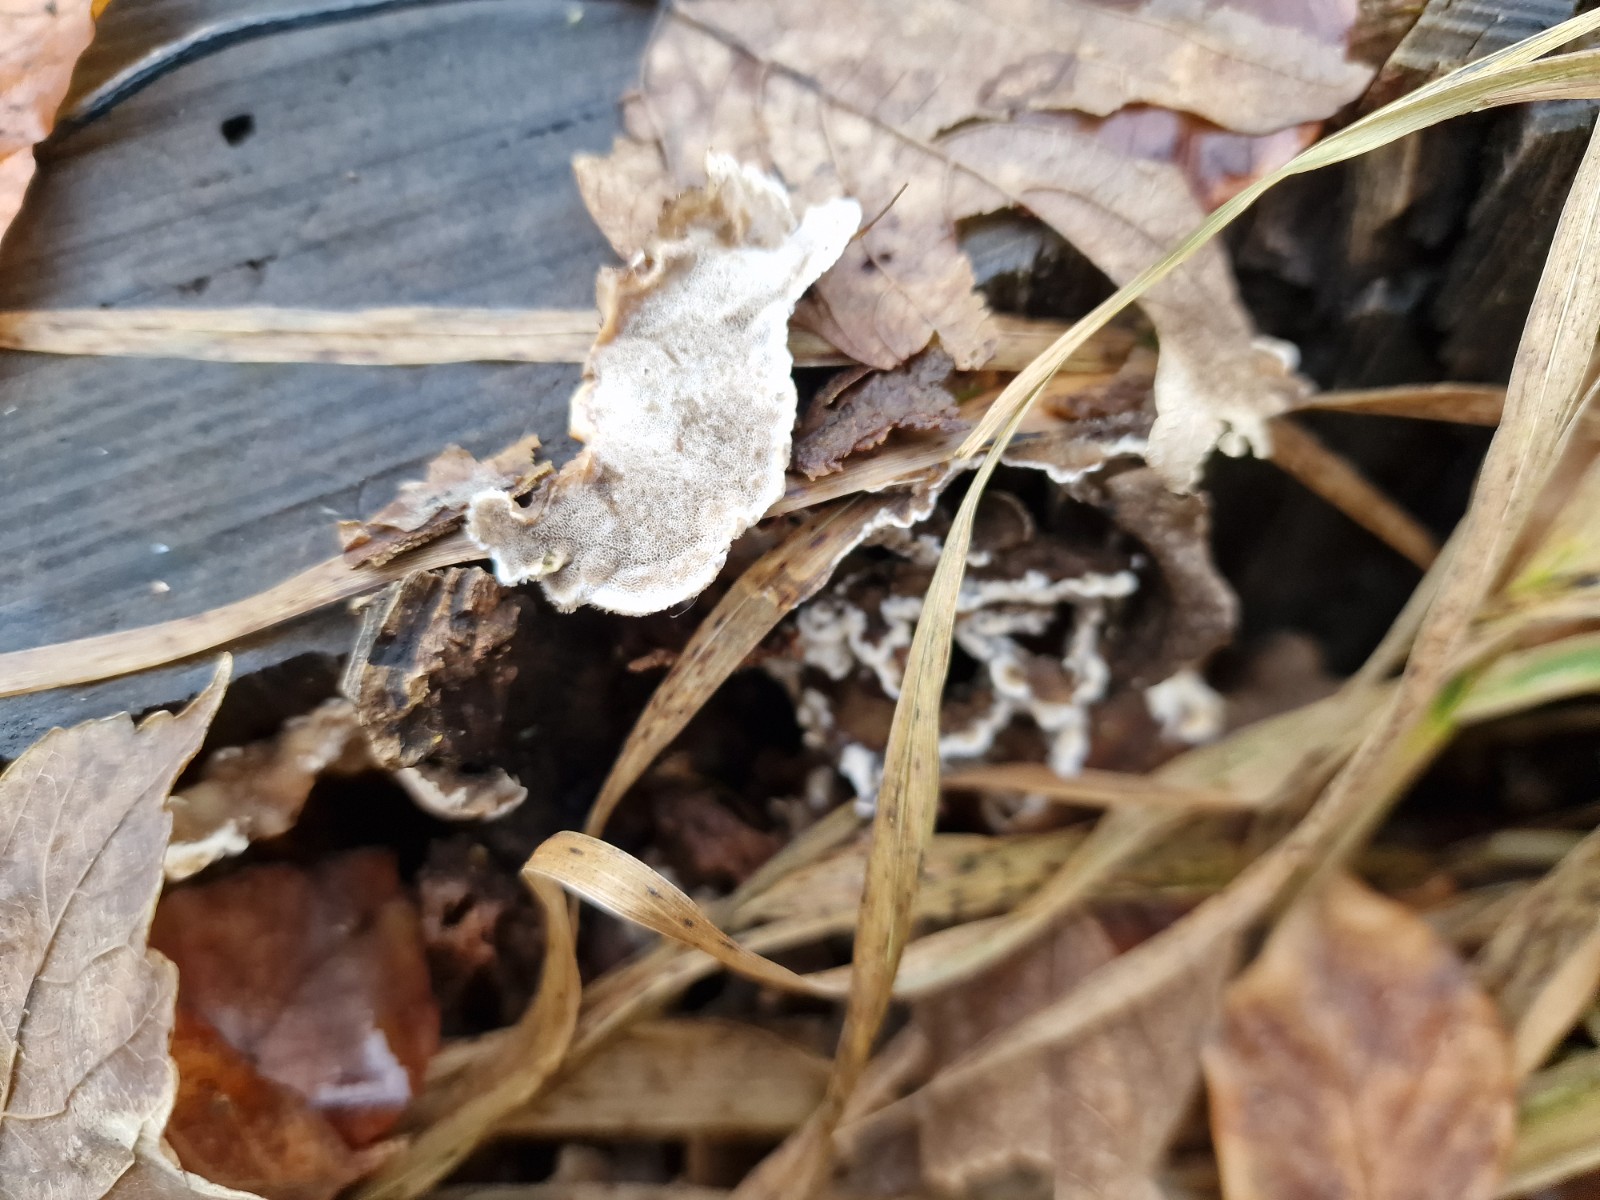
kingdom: Fungi
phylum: Basidiomycota
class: Agaricomycetes
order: Polyporales
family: Phanerochaetaceae
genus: Bjerkandera
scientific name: Bjerkandera adusta
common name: sveden sodporesvamp
